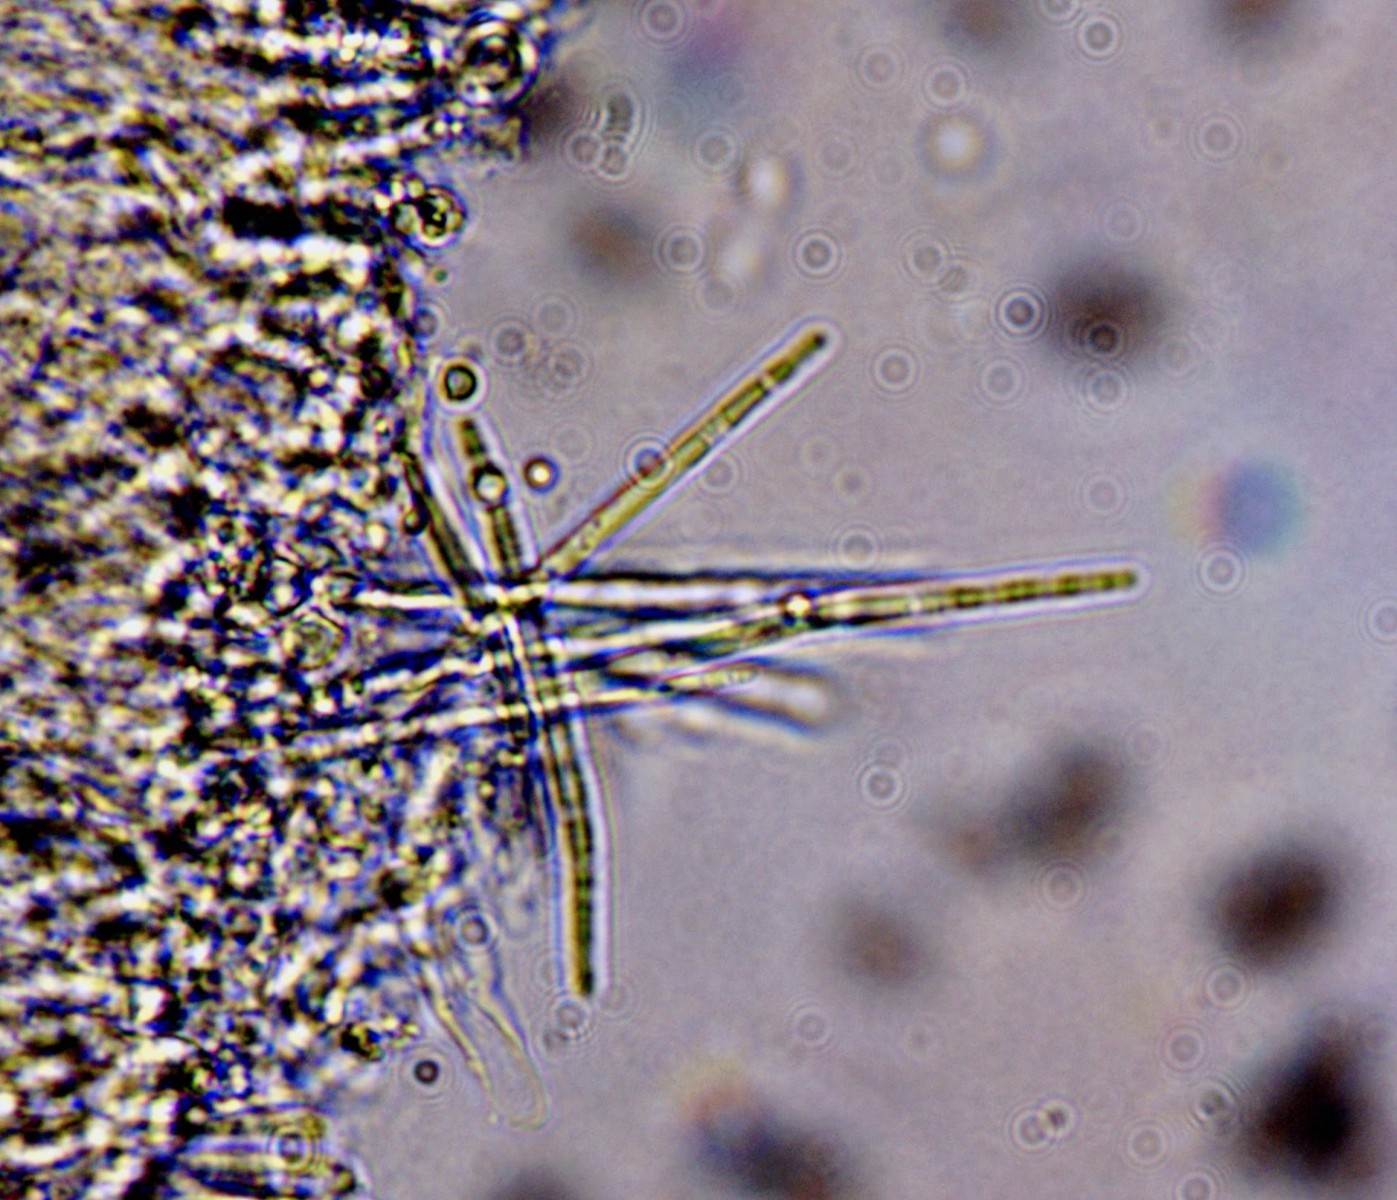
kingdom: Fungi
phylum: Ascomycota
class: Leotiomycetes
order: Helotiales
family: Lachnaceae
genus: Lachnum
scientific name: Lachnum apalum
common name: siv-frynseskive
